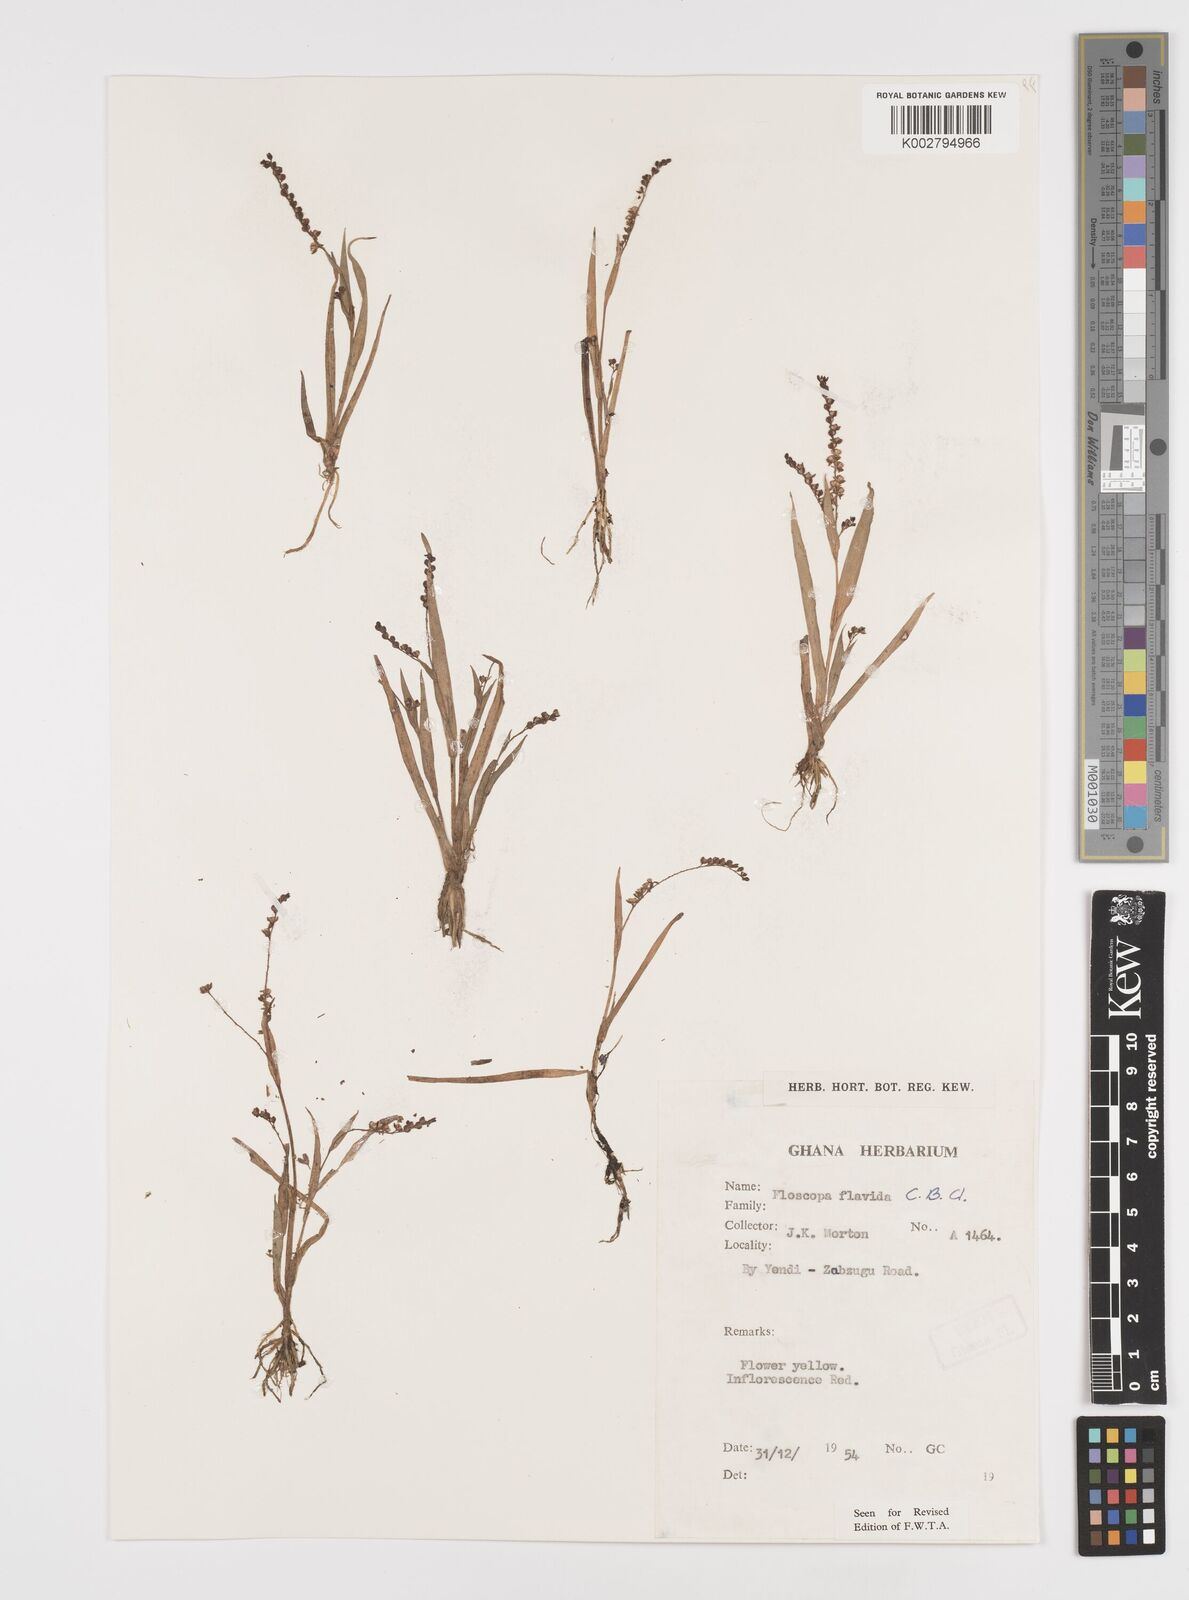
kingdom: Plantae
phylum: Tracheophyta
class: Liliopsida
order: Commelinales
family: Commelinaceae
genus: Floscopa
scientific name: Floscopa flavida
